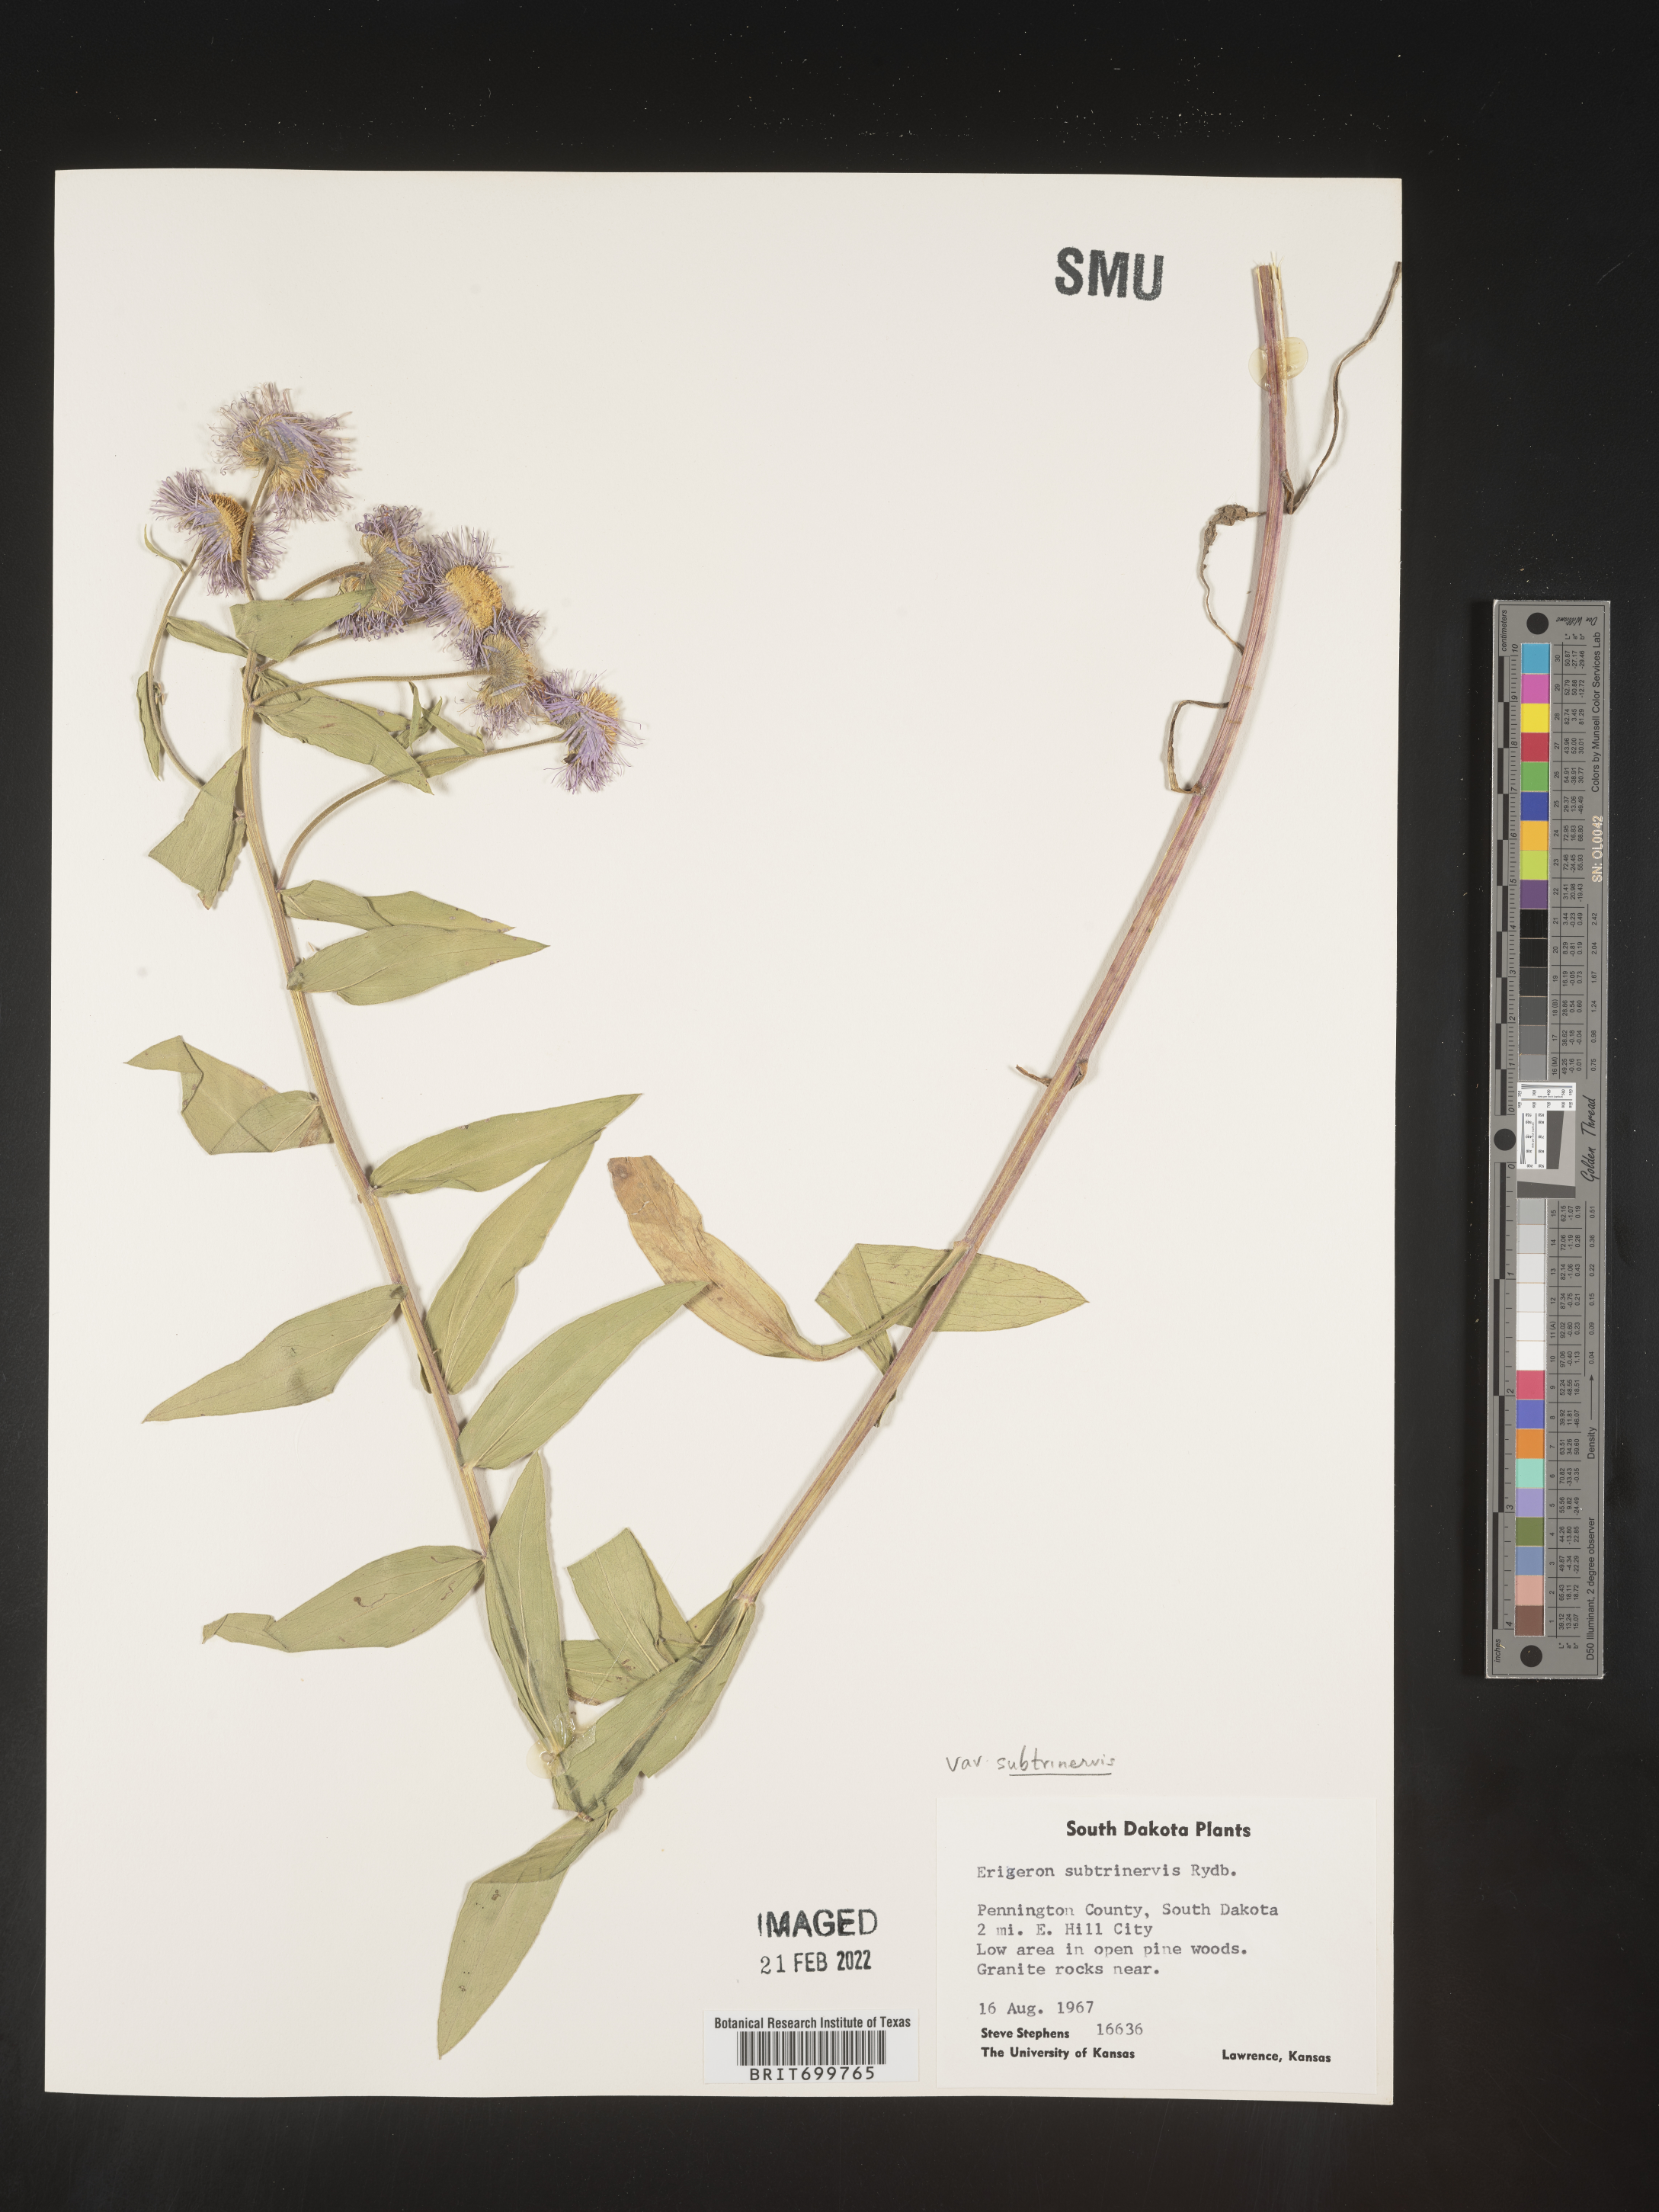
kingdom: Plantae
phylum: Tracheophyta
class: Magnoliopsida
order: Asterales
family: Asteraceae
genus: Erigeron
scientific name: Erigeron subtrinervis
